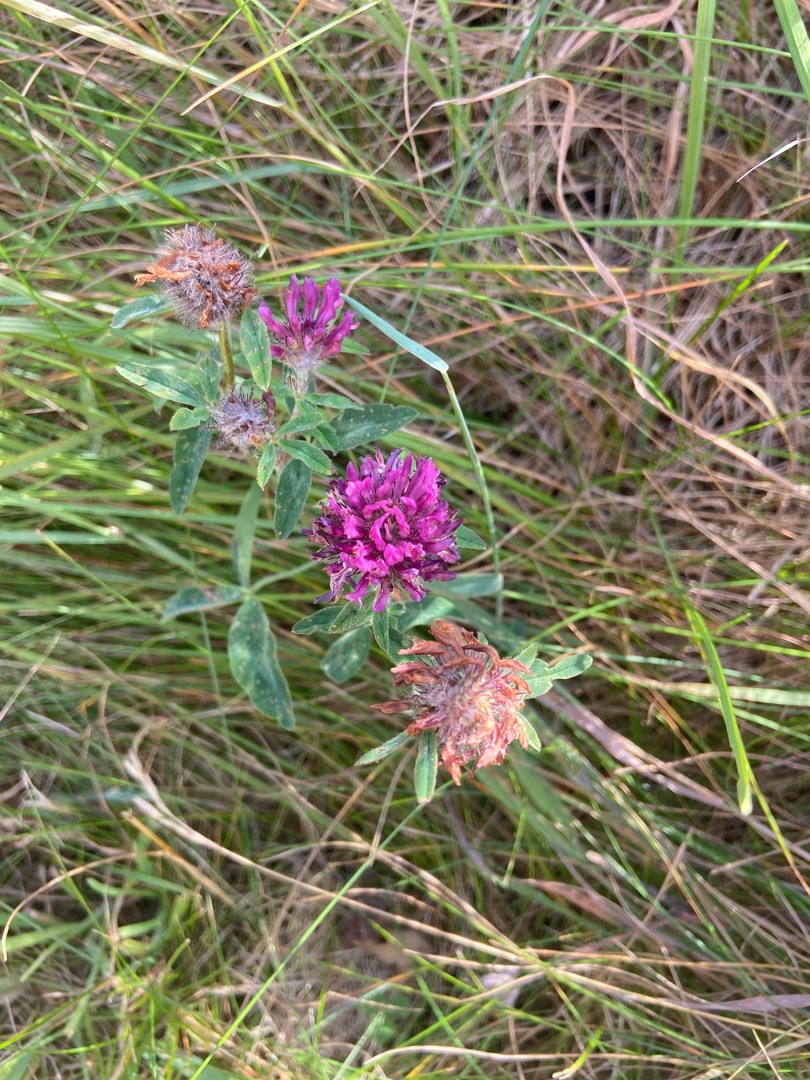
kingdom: Plantae
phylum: Tracheophyta
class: Magnoliopsida
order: Fabales
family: Fabaceae
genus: Trifolium
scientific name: Trifolium pratense
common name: Rød-kløver
